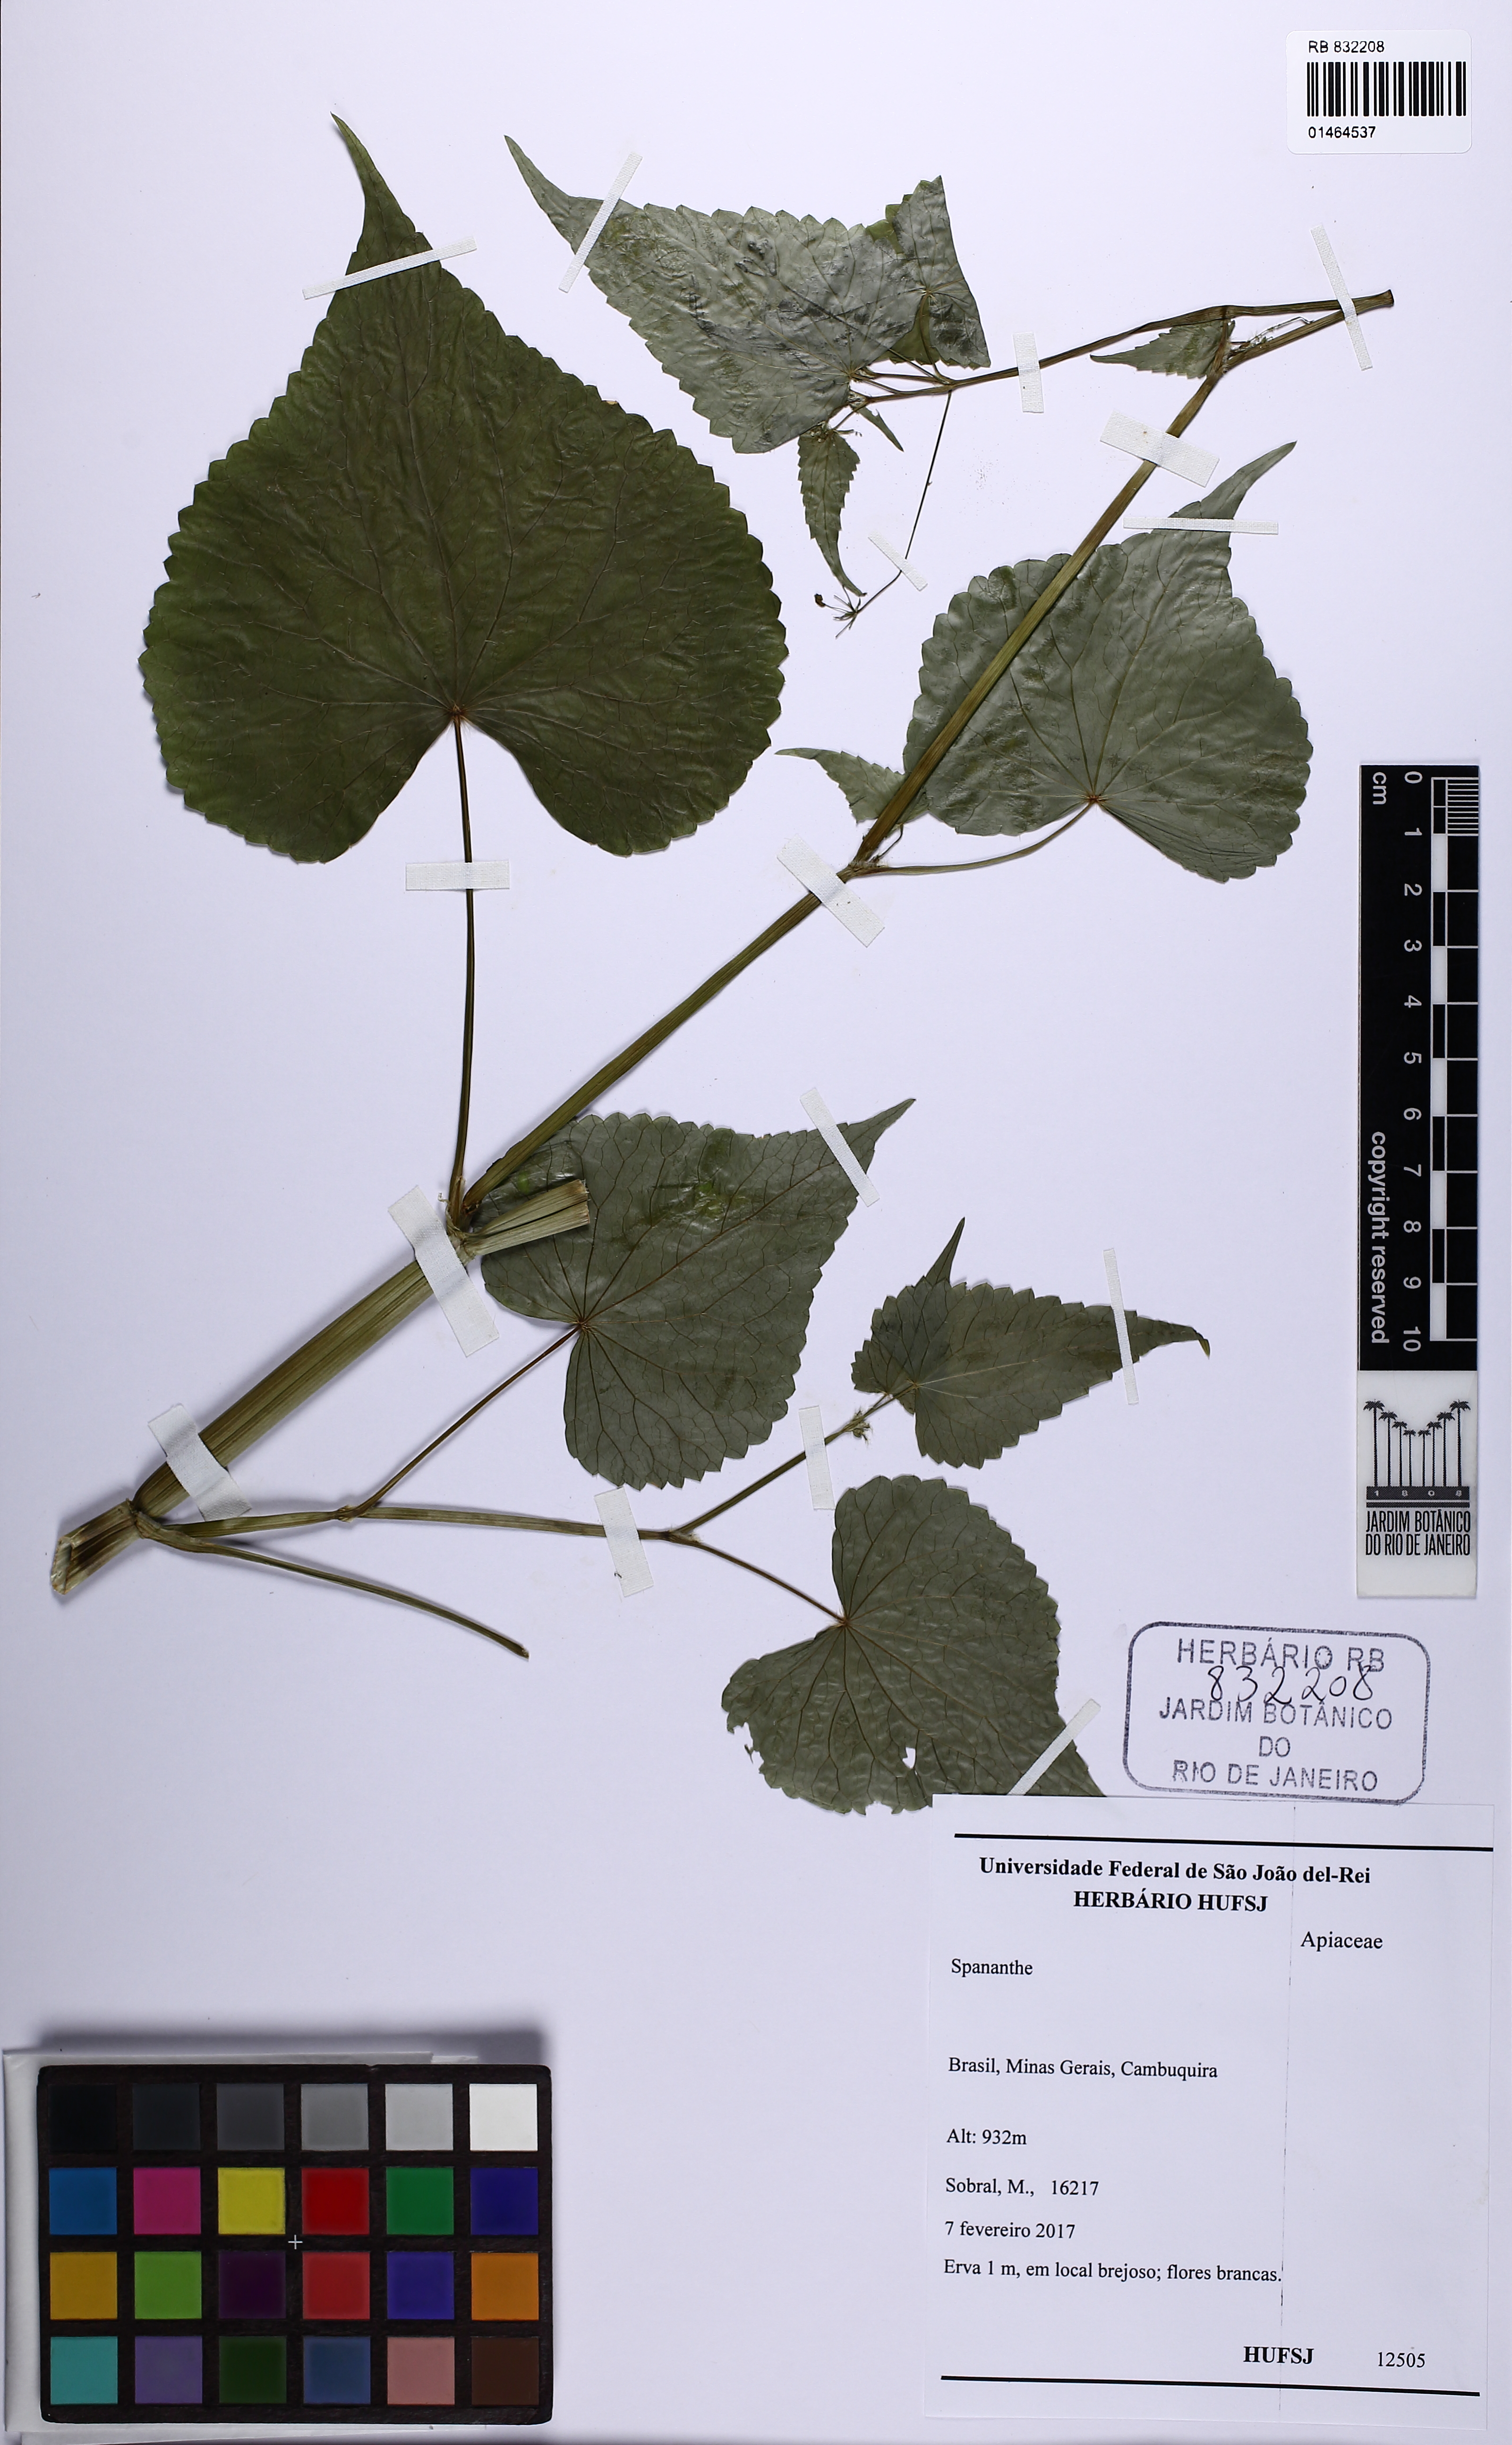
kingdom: Plantae
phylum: Tracheophyta
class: Magnoliopsida
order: Apiales
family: Apiaceae
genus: Spananthe
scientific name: Spananthe
